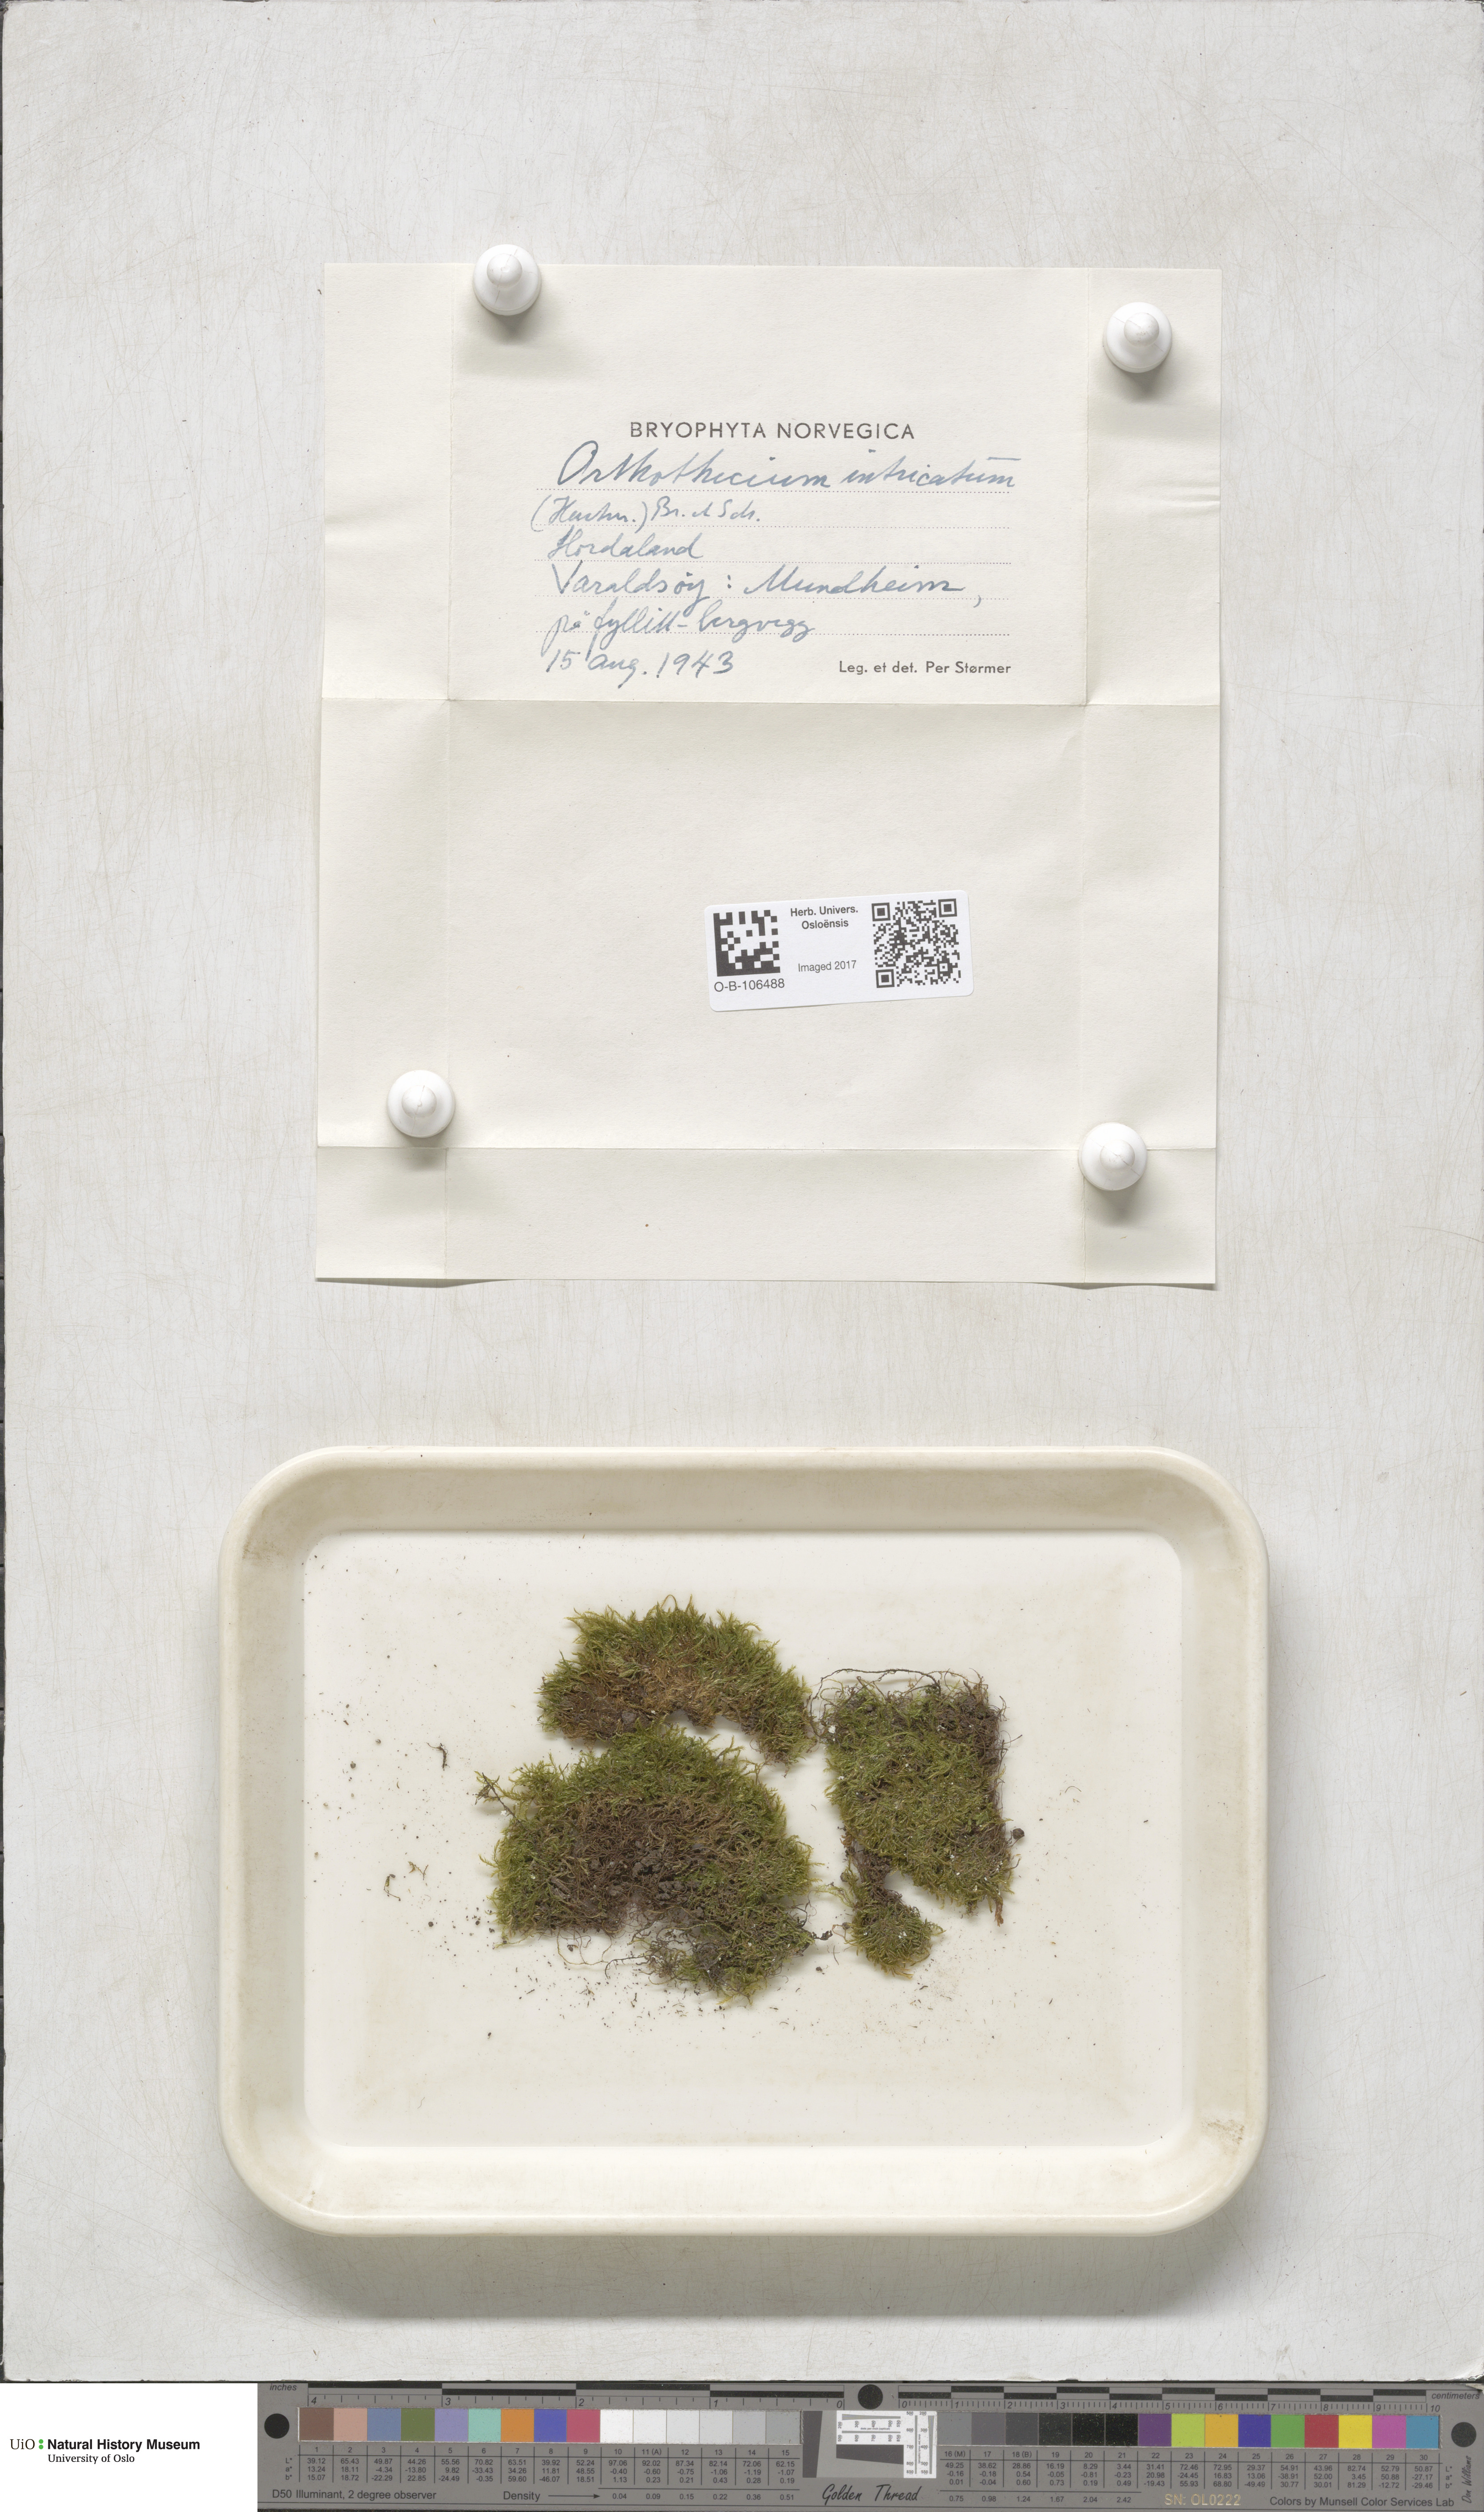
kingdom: Plantae
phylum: Bryophyta
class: Bryopsida
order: Hypnales
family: Plagiotheciaceae
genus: Orthothecium
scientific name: Orthothecium intricatum
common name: Fine-leaved erect-capsule moss
